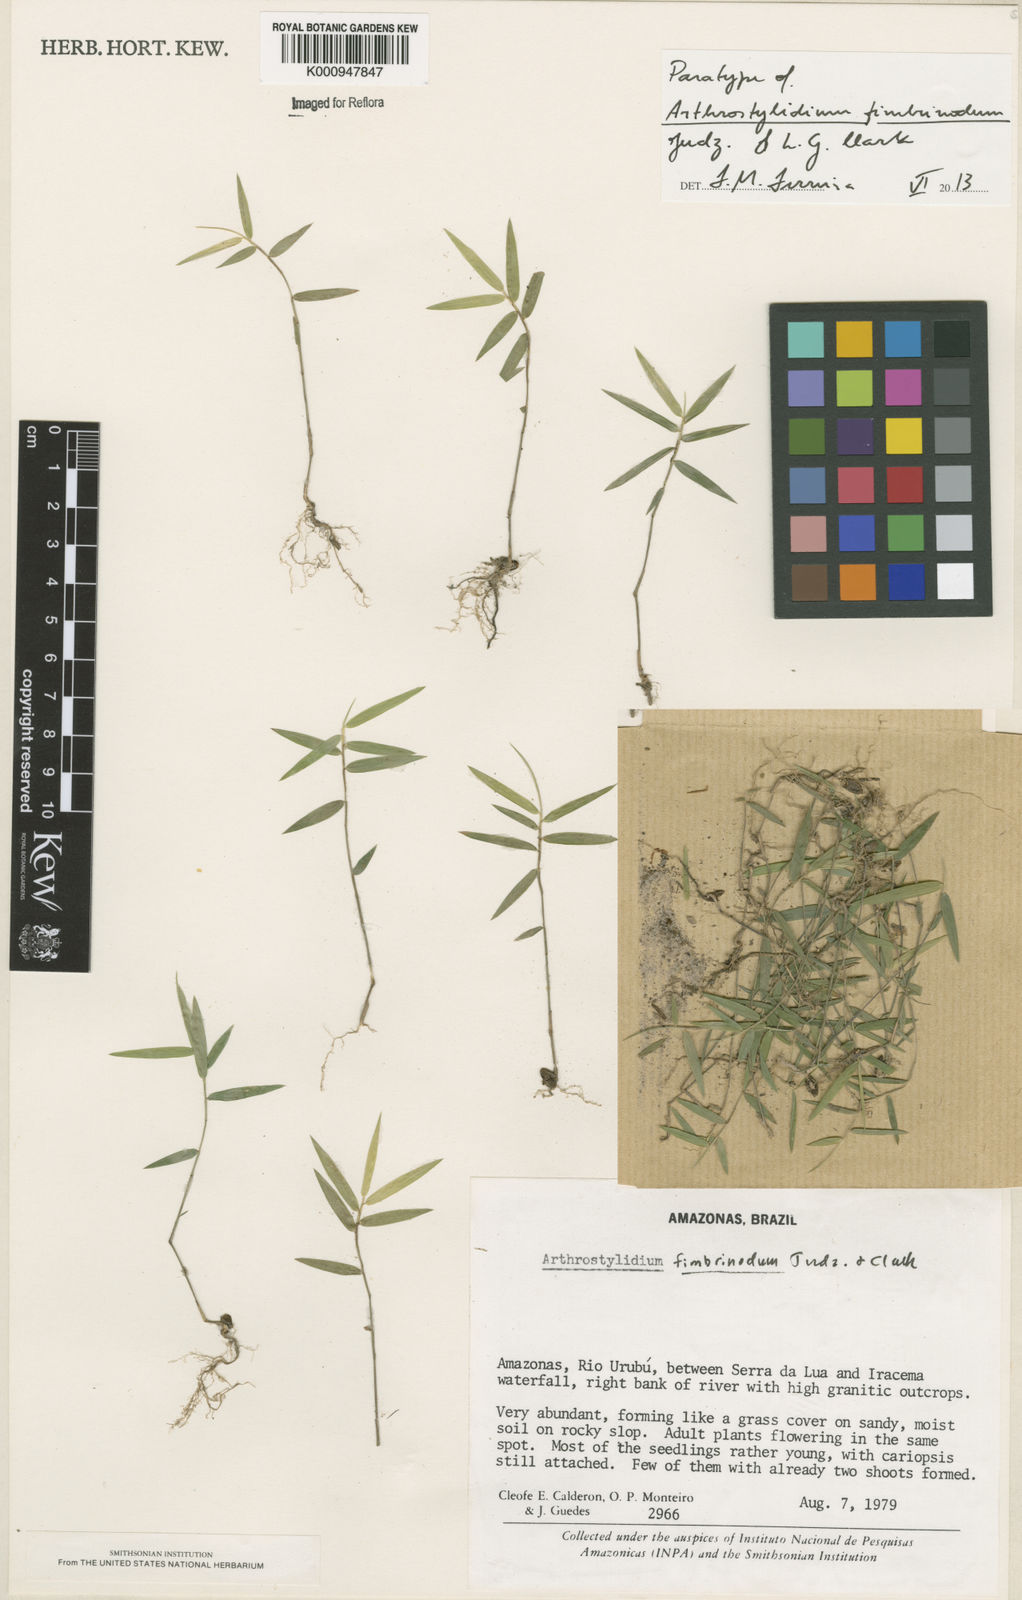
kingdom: Plantae
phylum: Tracheophyta
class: Liliopsida
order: Poales
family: Poaceae
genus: Arthrostylidium
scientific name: Arthrostylidium fimbrinodum
